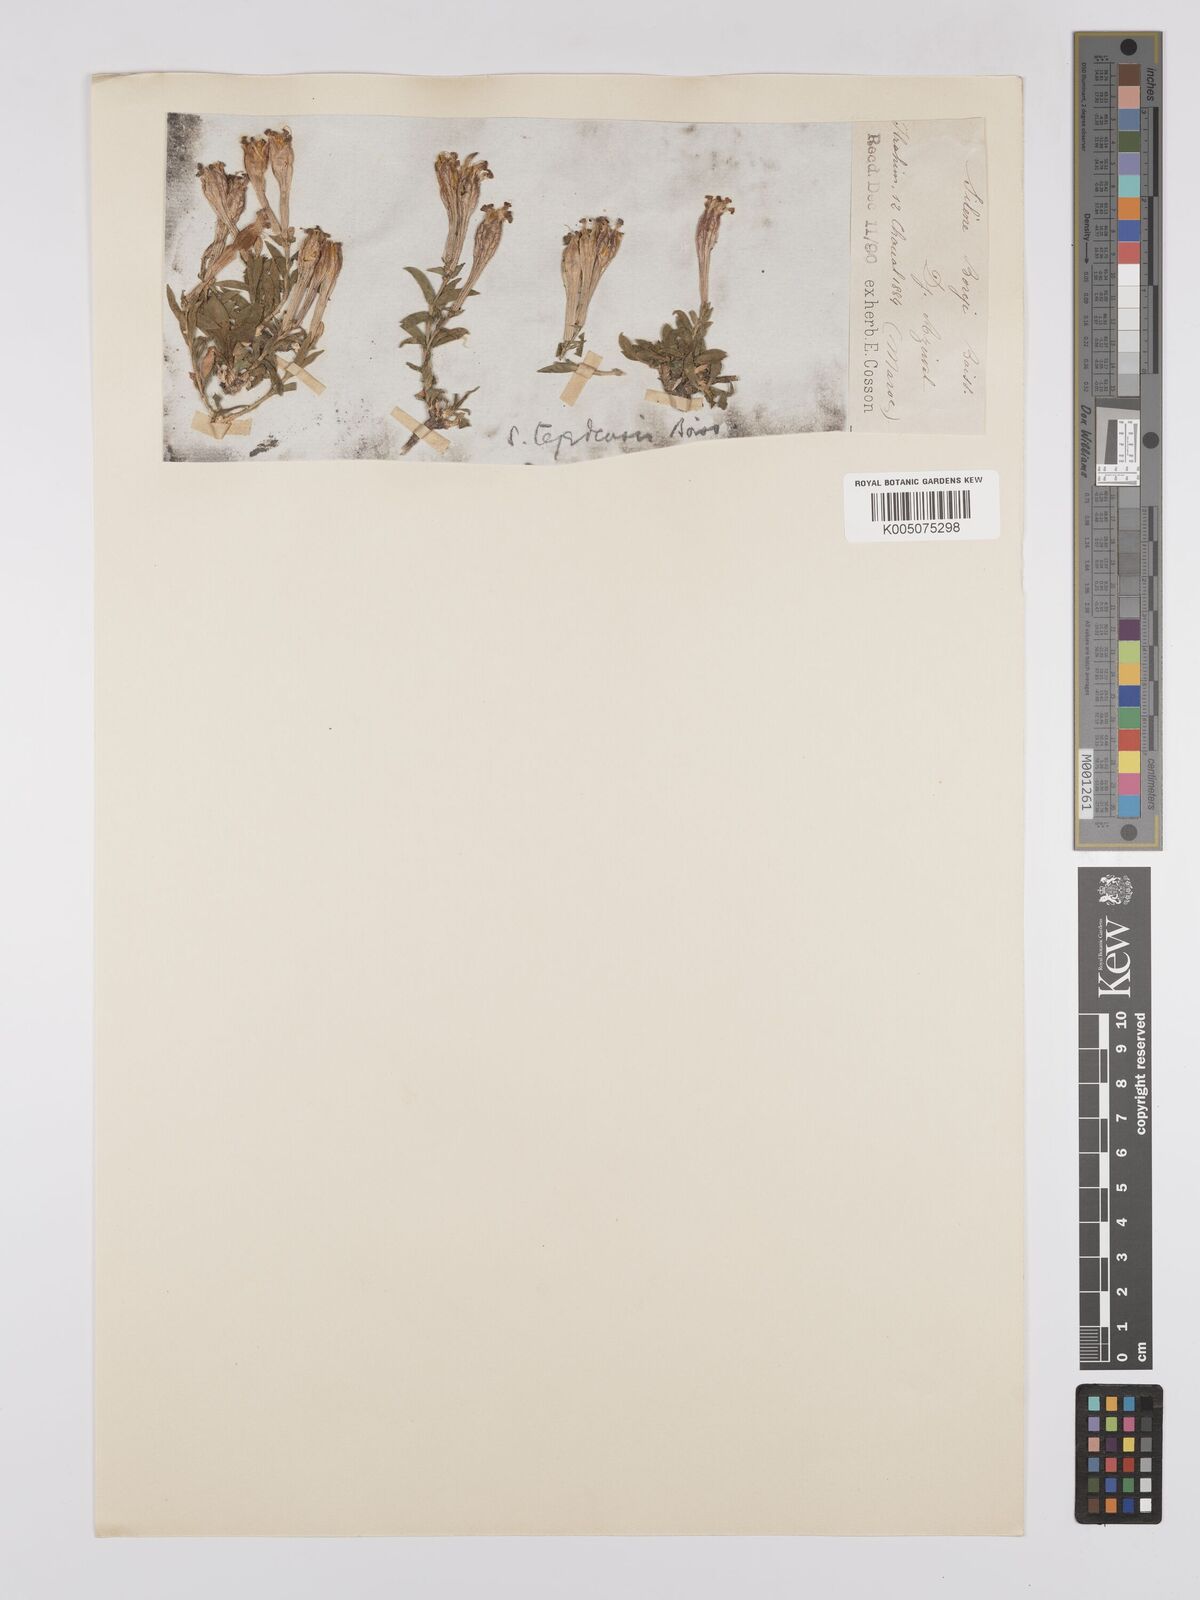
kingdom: Plantae
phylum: Tracheophyta
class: Magnoliopsida
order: Caryophyllales
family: Caryophyllaceae
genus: Silene
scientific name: Silene boryi
